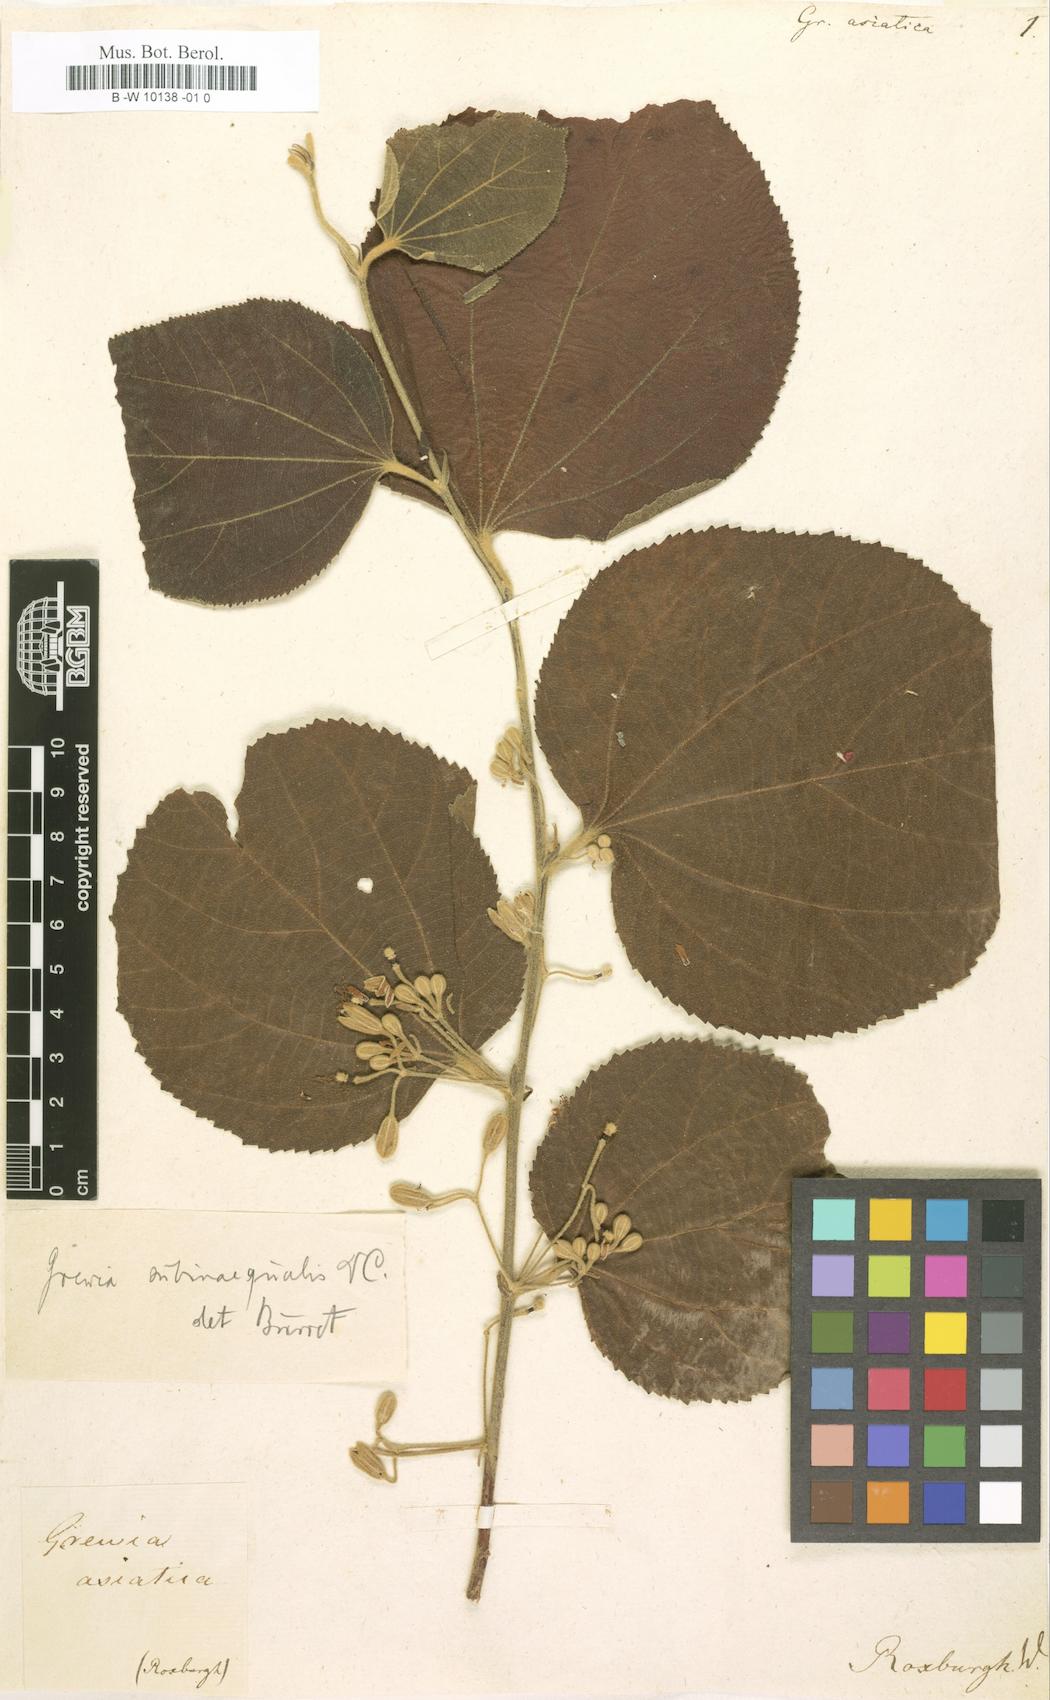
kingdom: Plantae
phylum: Tracheophyta
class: Magnoliopsida
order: Malvales
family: Malvaceae
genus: Grewia
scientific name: Grewia asiatica
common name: Phalsa
